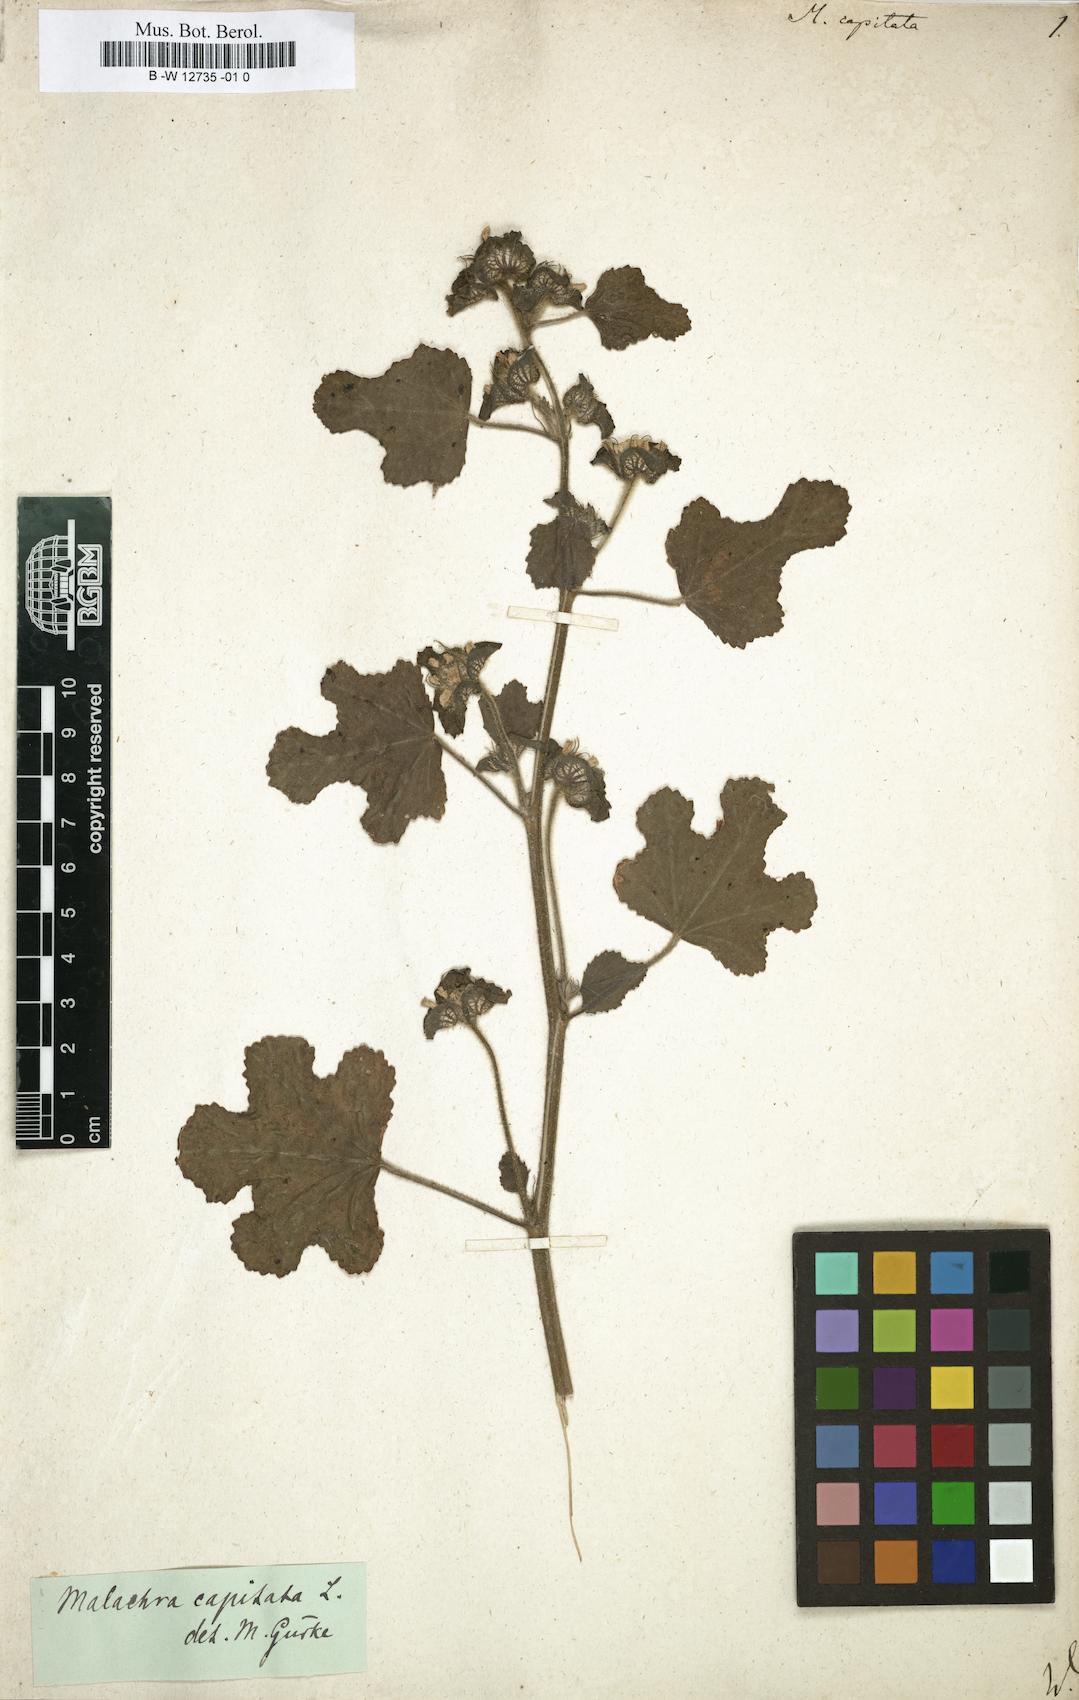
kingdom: Plantae
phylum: Tracheophyta
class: Magnoliopsida
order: Malvales
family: Malvaceae
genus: Malachra
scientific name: Malachra capitata
